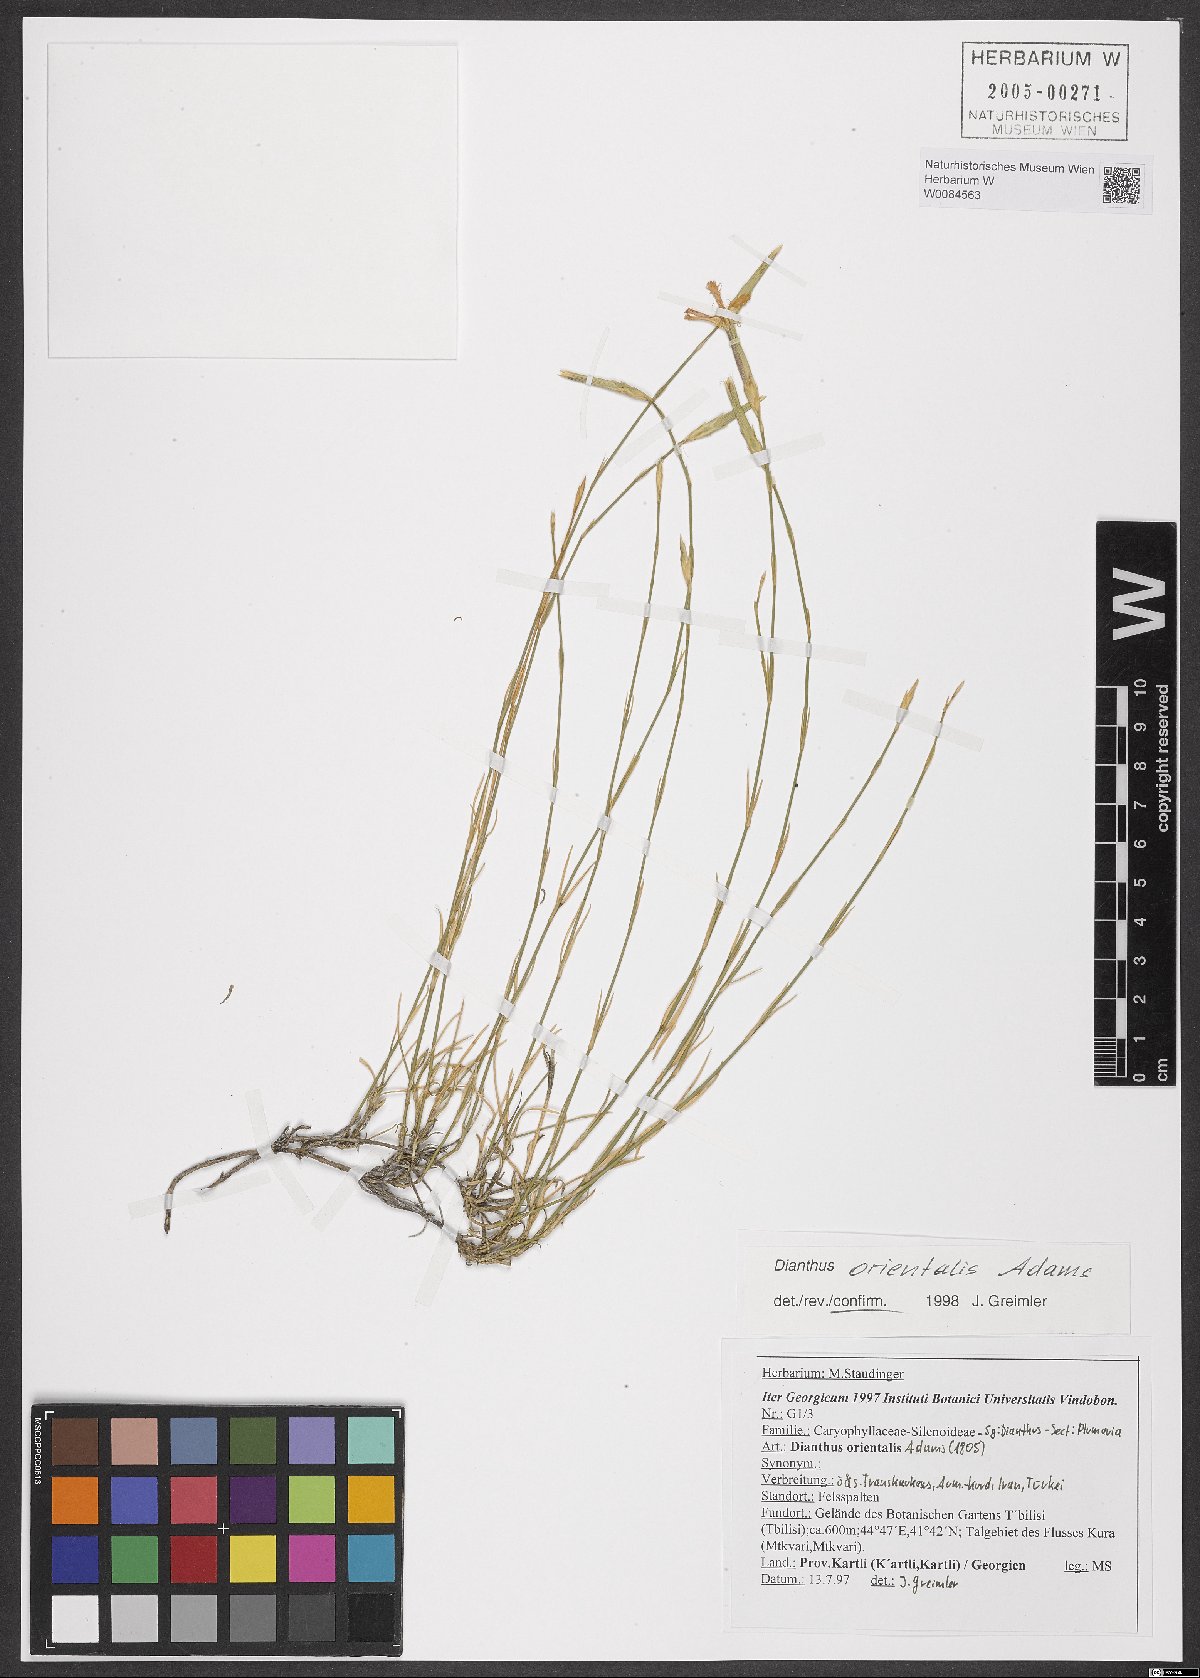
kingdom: Plantae
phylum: Tracheophyta
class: Magnoliopsida
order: Caryophyllales
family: Caryophyllaceae
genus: Dianthus
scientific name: Dianthus orientalis
